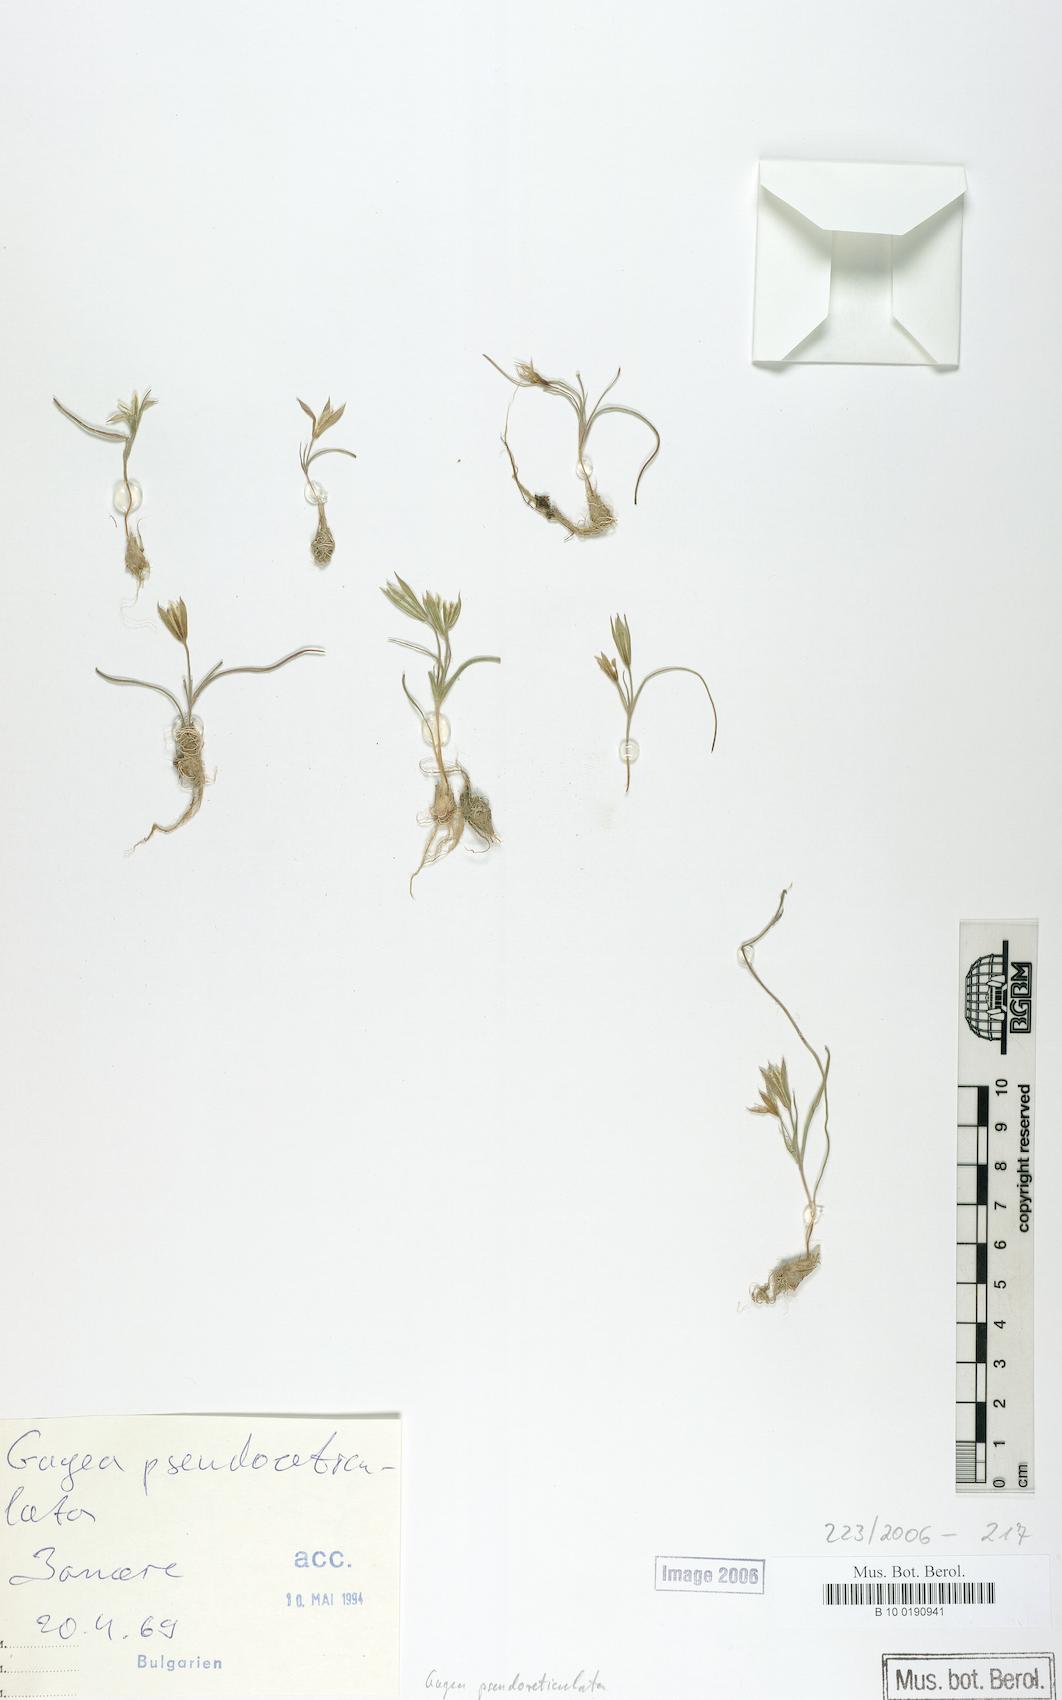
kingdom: Plantae
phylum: Tracheophyta
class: Liliopsida
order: Liliales
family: Liliaceae
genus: Gagea
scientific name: Gagea reticulata
